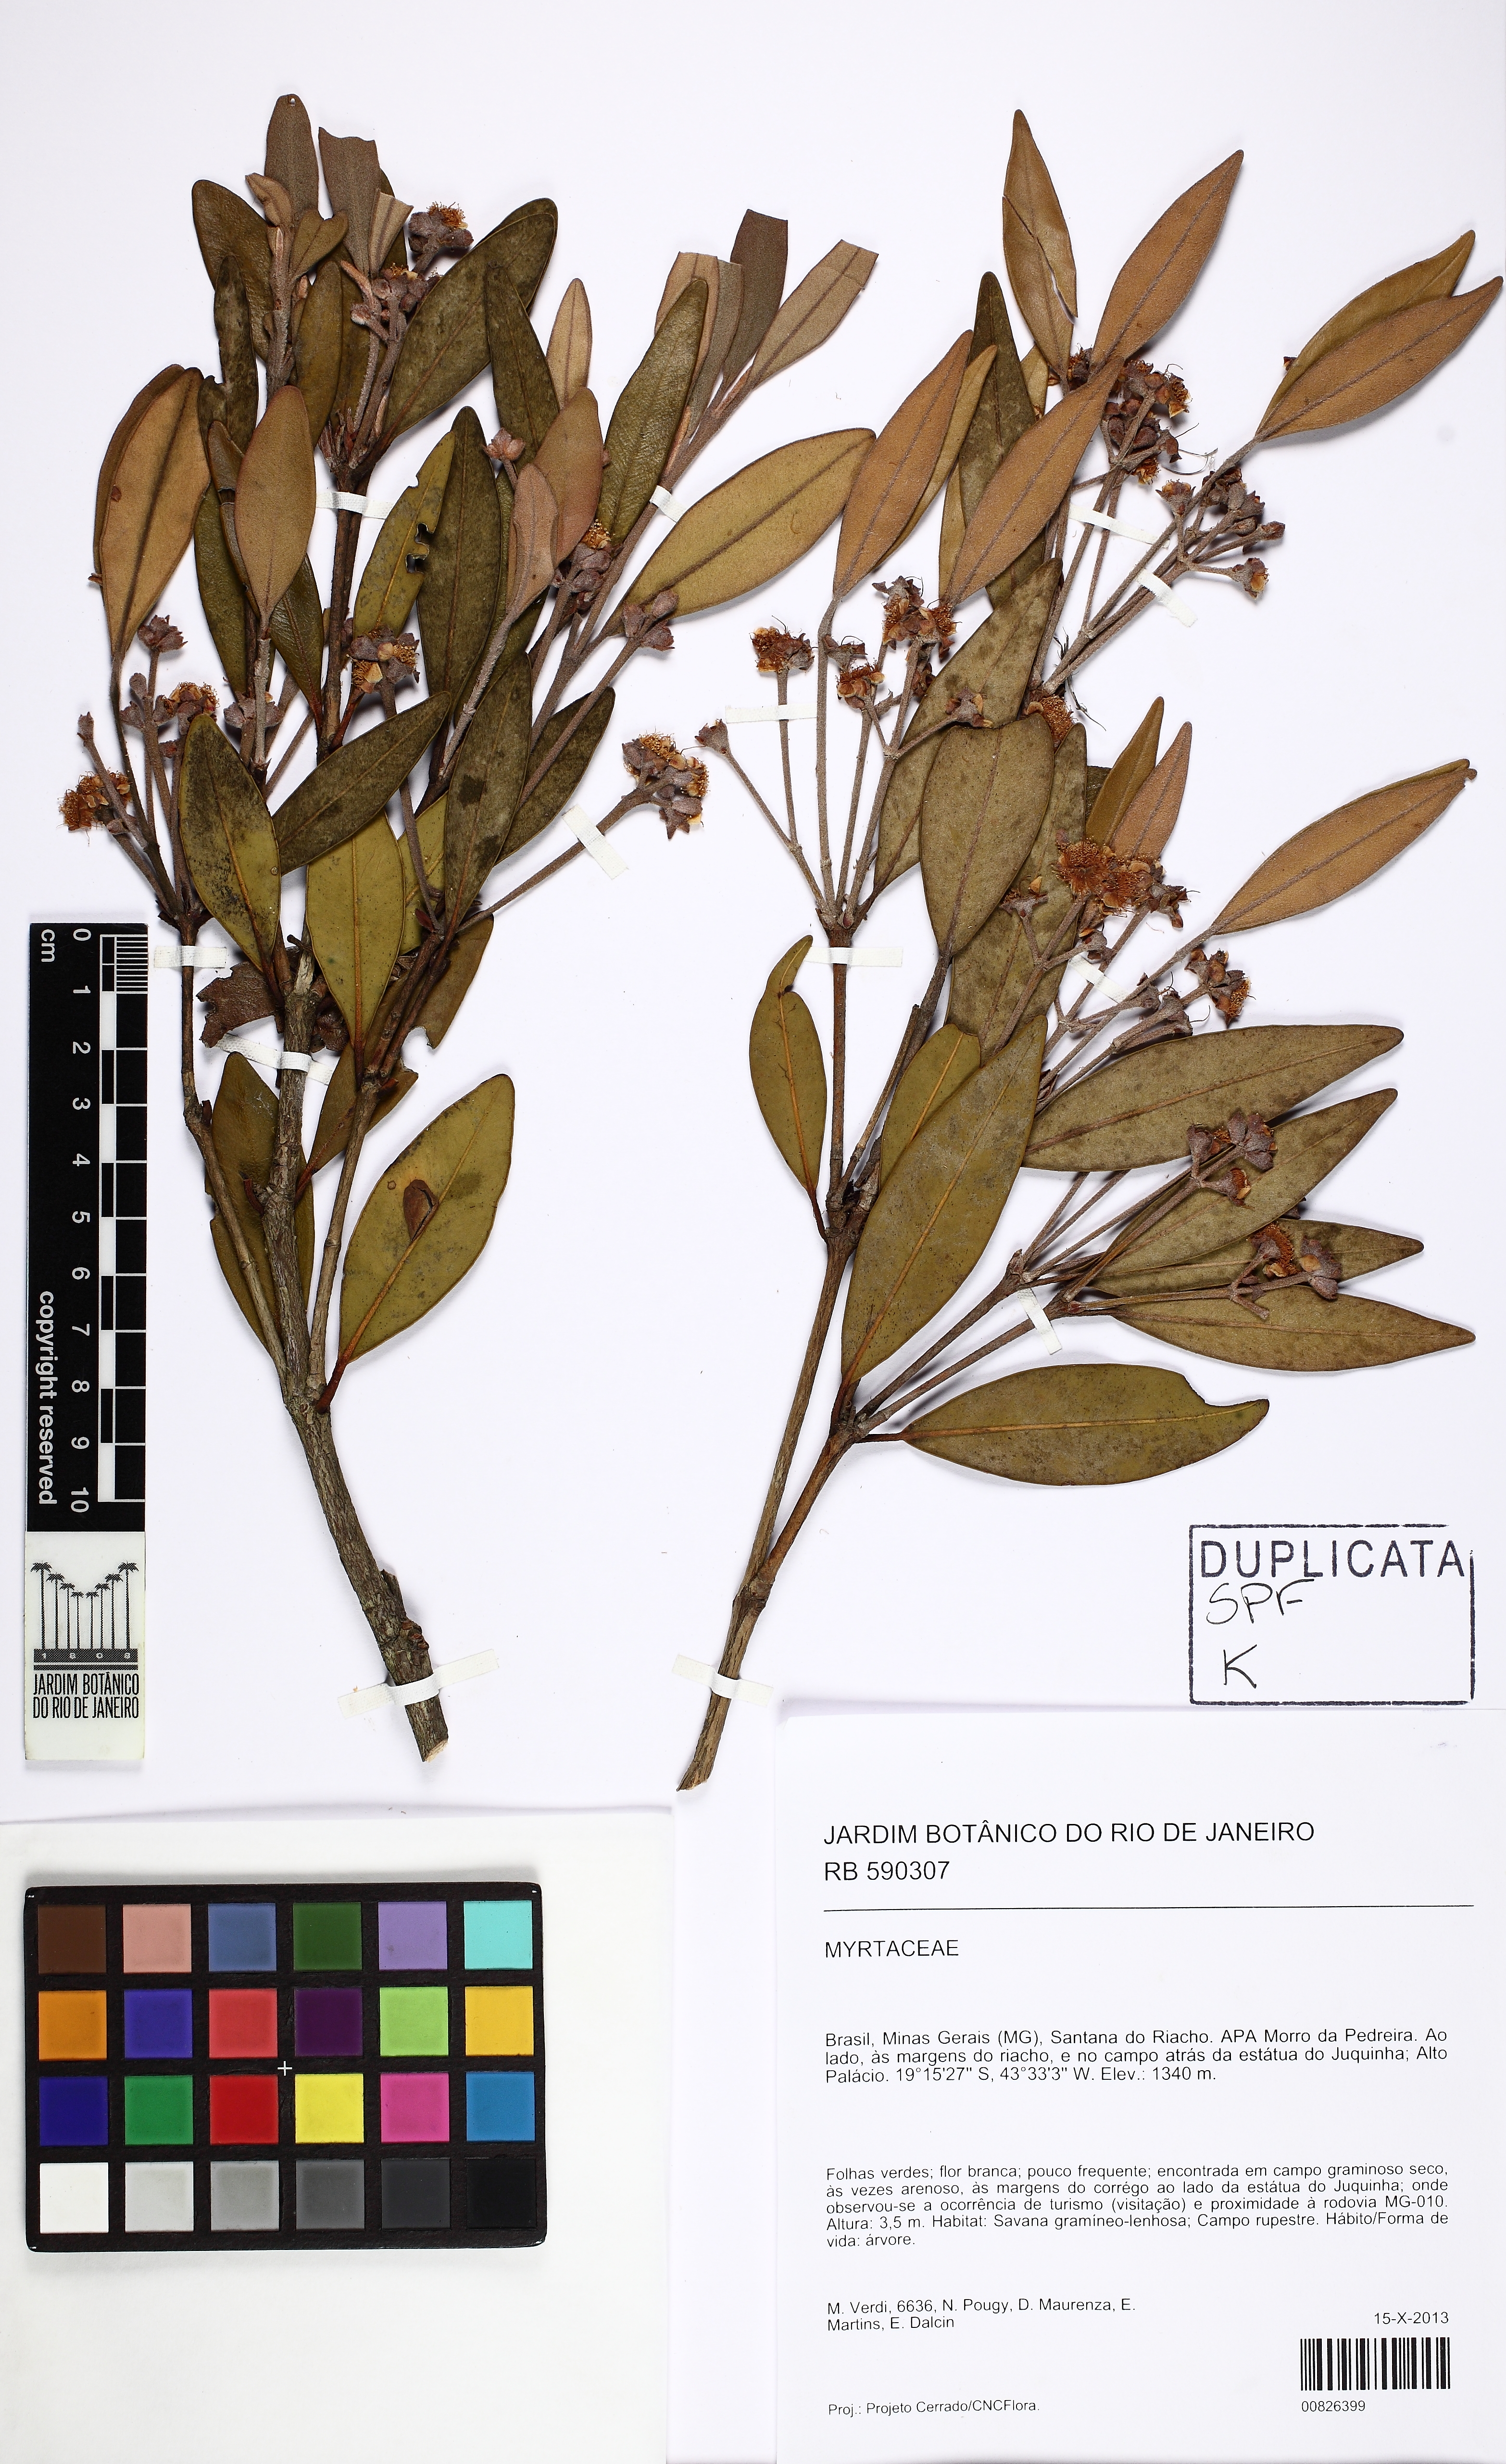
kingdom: Plantae
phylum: Tracheophyta
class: Magnoliopsida
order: Myrtales
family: Myrtaceae
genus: Myrcia
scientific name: Myrcia subavenia
